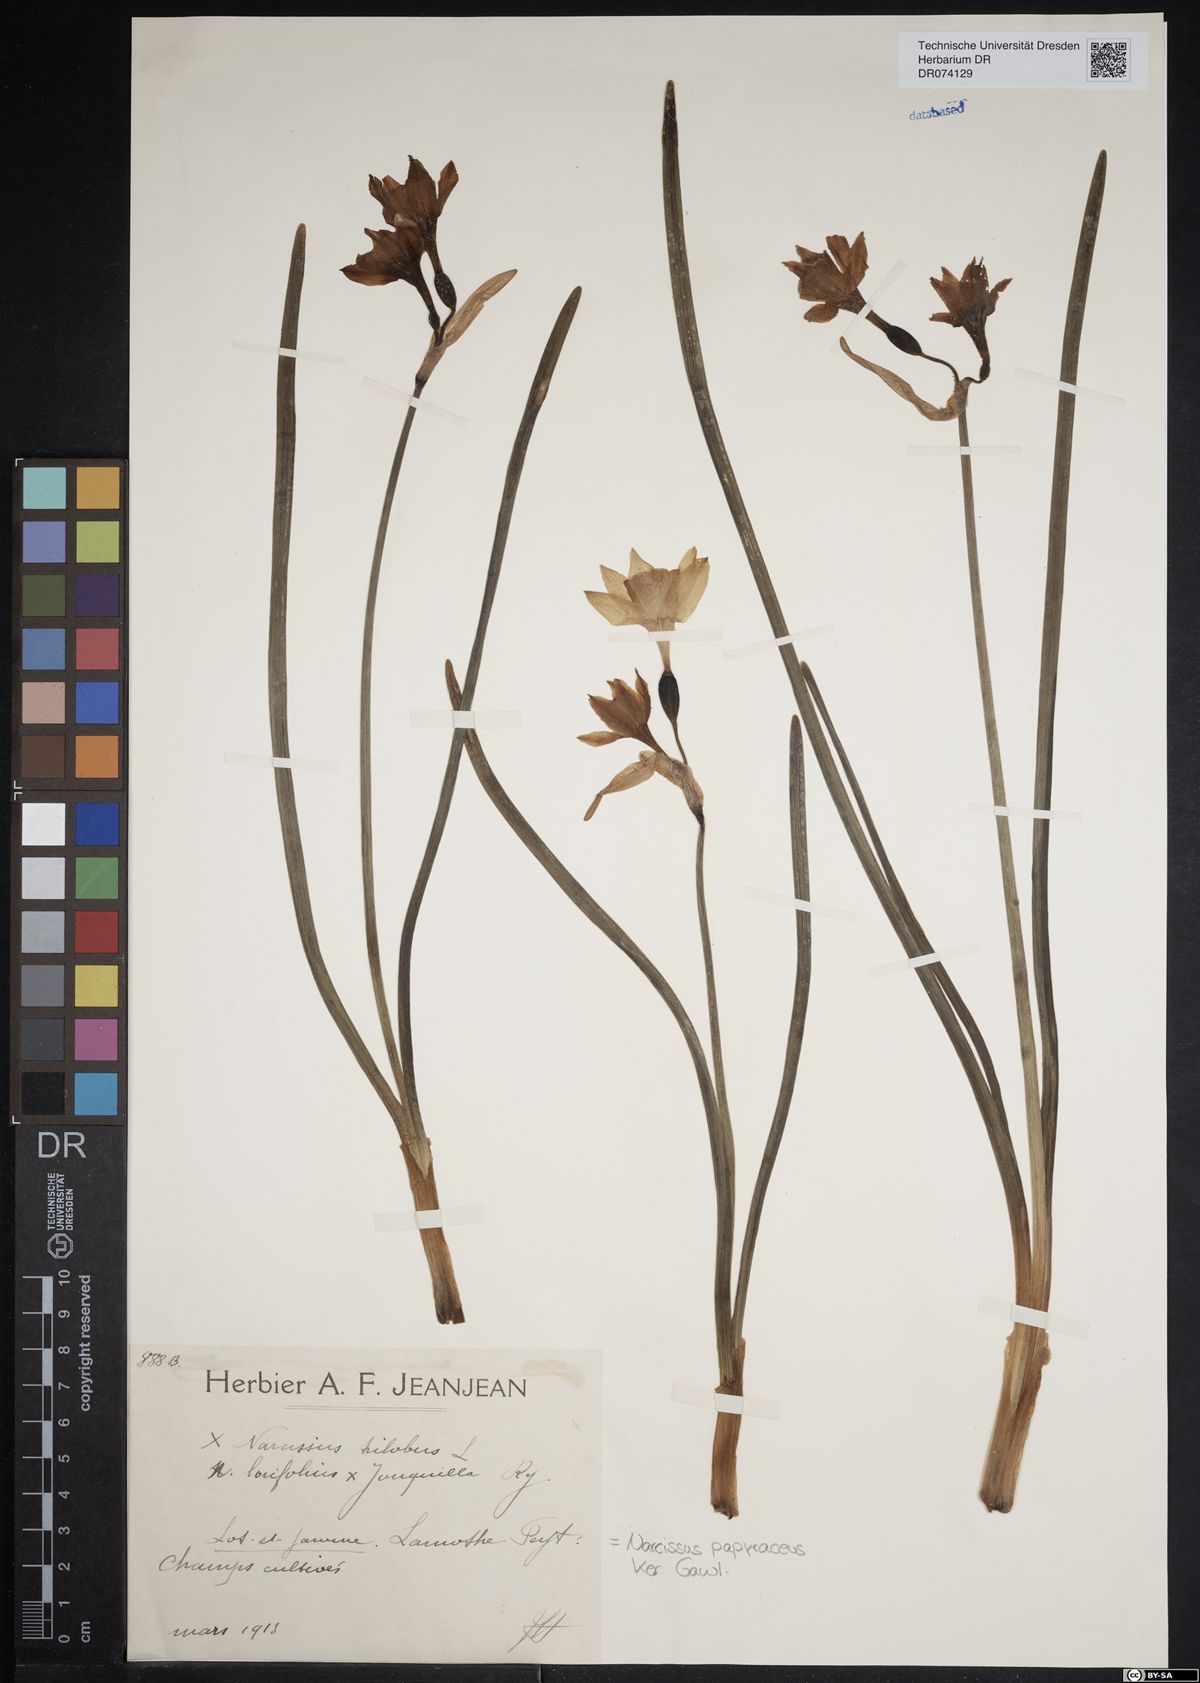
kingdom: Plantae
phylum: Tracheophyta
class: Liliopsida
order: Asparagales
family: Amaryllidaceae
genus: Narcissus
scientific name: Narcissus papyraceus
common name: Paper-white daffodil
